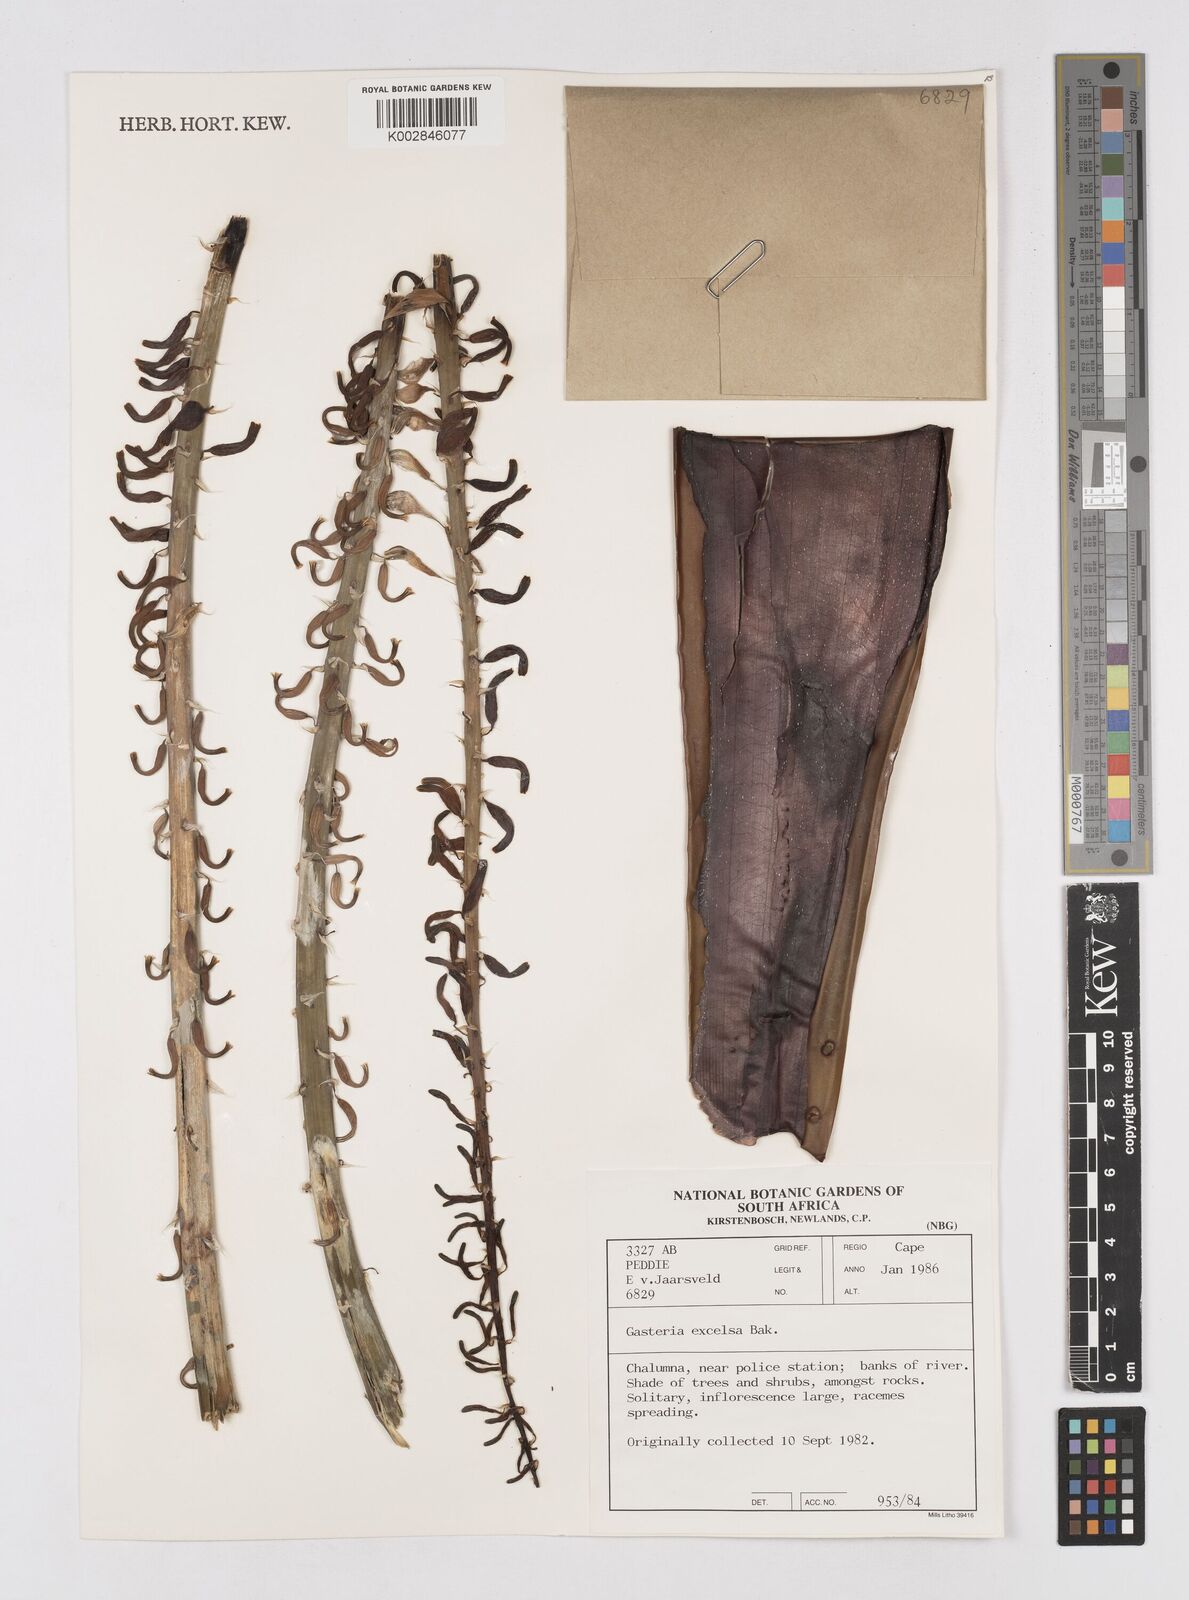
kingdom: Plantae
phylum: Tracheophyta
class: Liliopsida
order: Asparagales
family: Asphodelaceae
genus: Gasteria
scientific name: Gasteria excelsa
